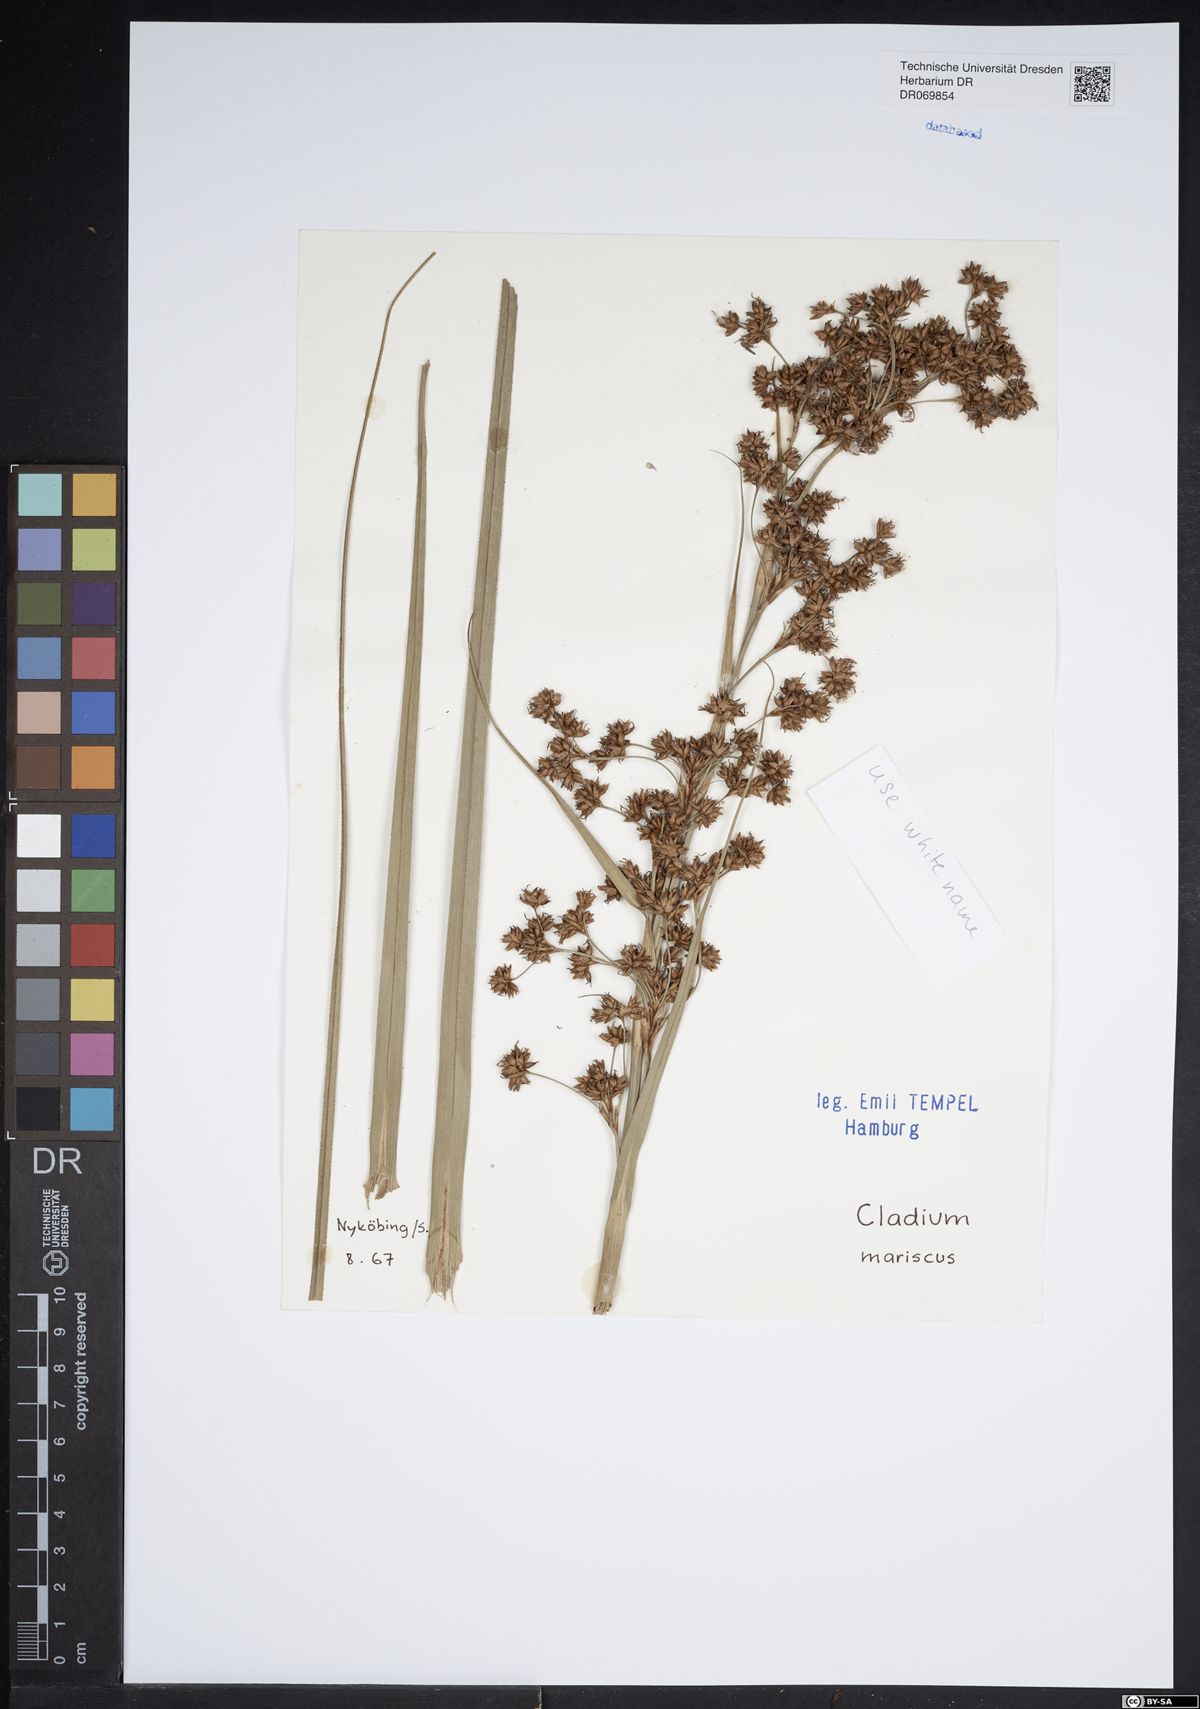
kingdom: Plantae
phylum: Tracheophyta
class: Liliopsida
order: Poales
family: Cyperaceae
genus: Cladium
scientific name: Cladium mariscus
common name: Great fen-sedge
